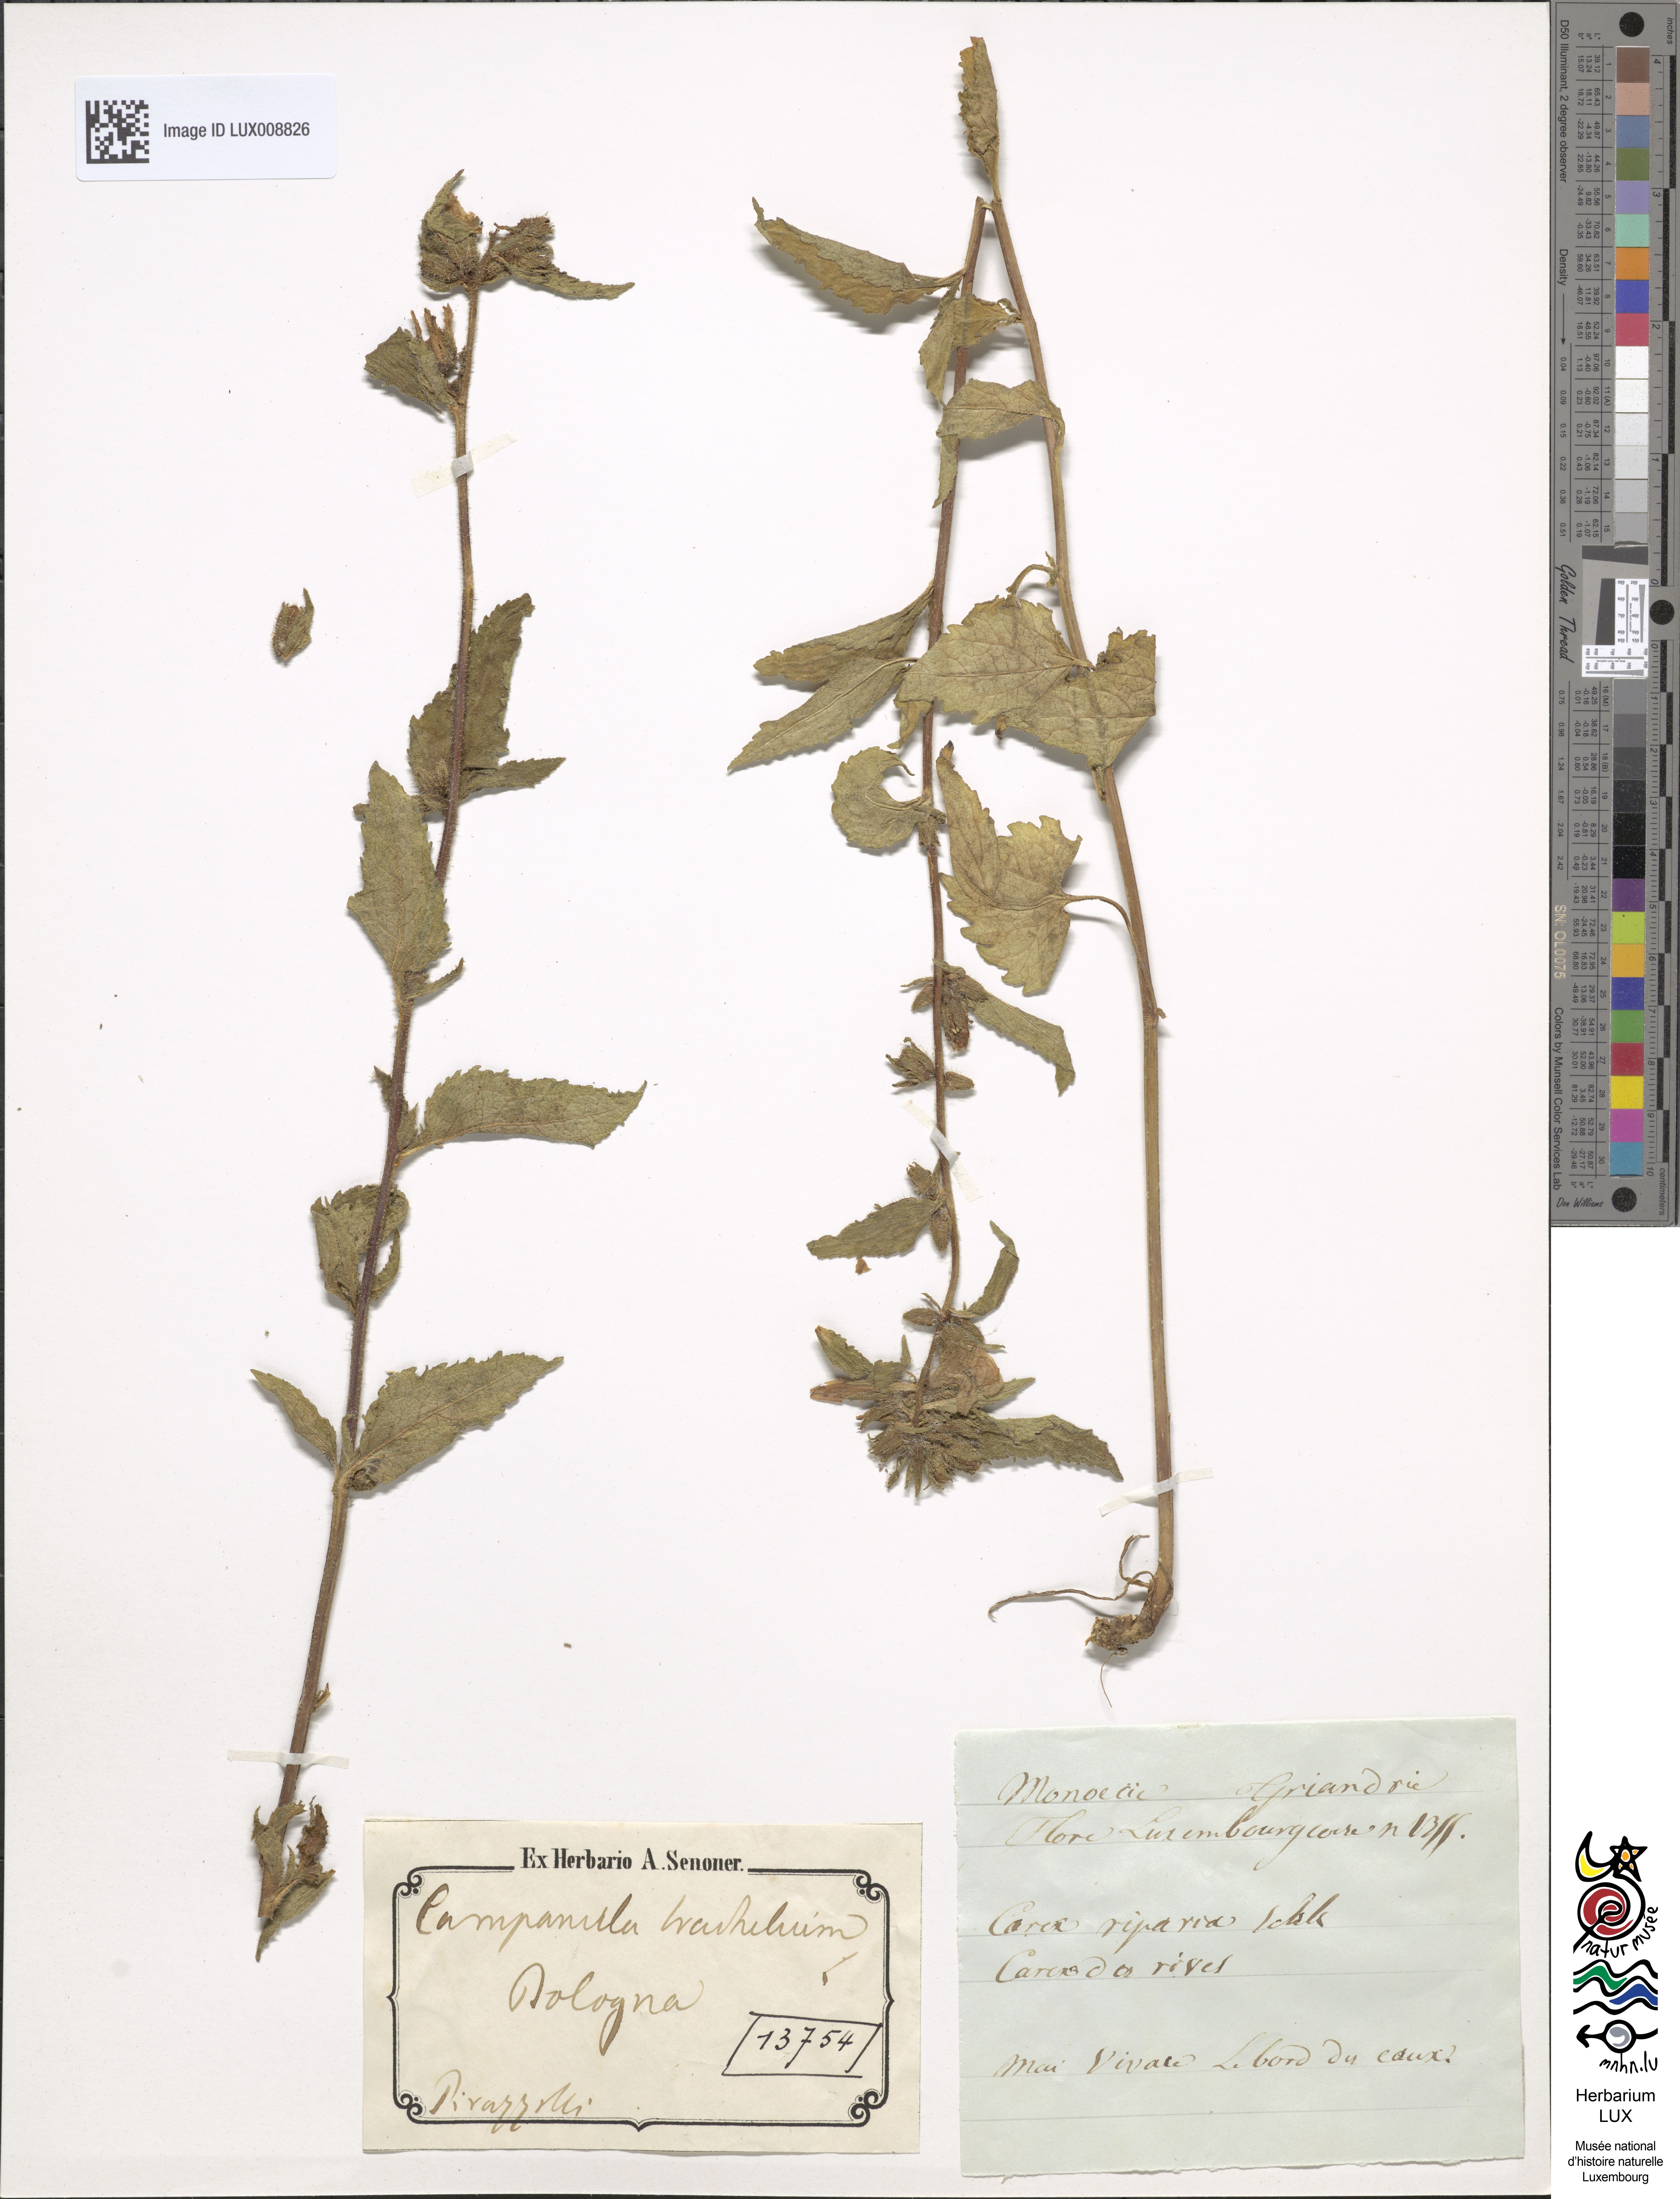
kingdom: Plantae
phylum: Tracheophyta
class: Magnoliopsida
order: Asterales
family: Campanulaceae
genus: Campanula
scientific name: Campanula trachelium
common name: Nettle-leaved bellflower
